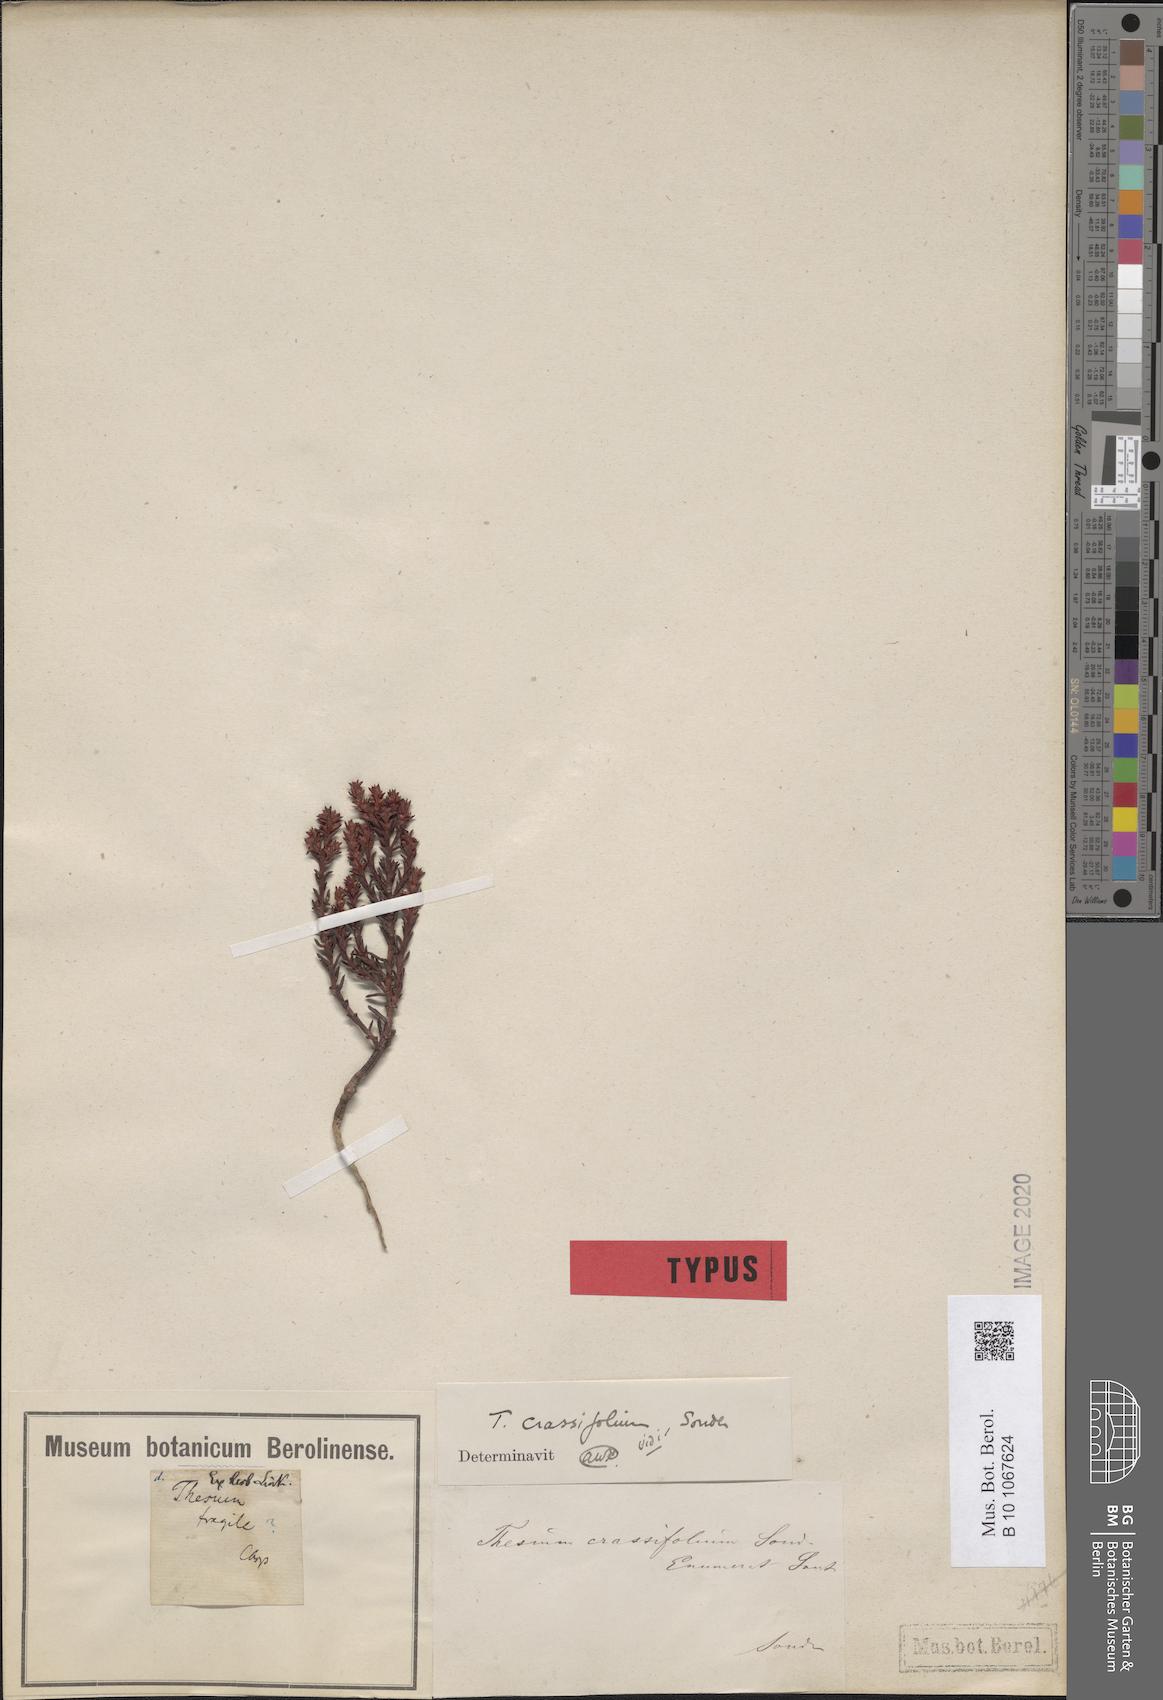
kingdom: Plantae
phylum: Tracheophyta
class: Magnoliopsida
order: Santalales
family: Thesiaceae
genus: Thesium
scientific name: Thesium sedifolium
